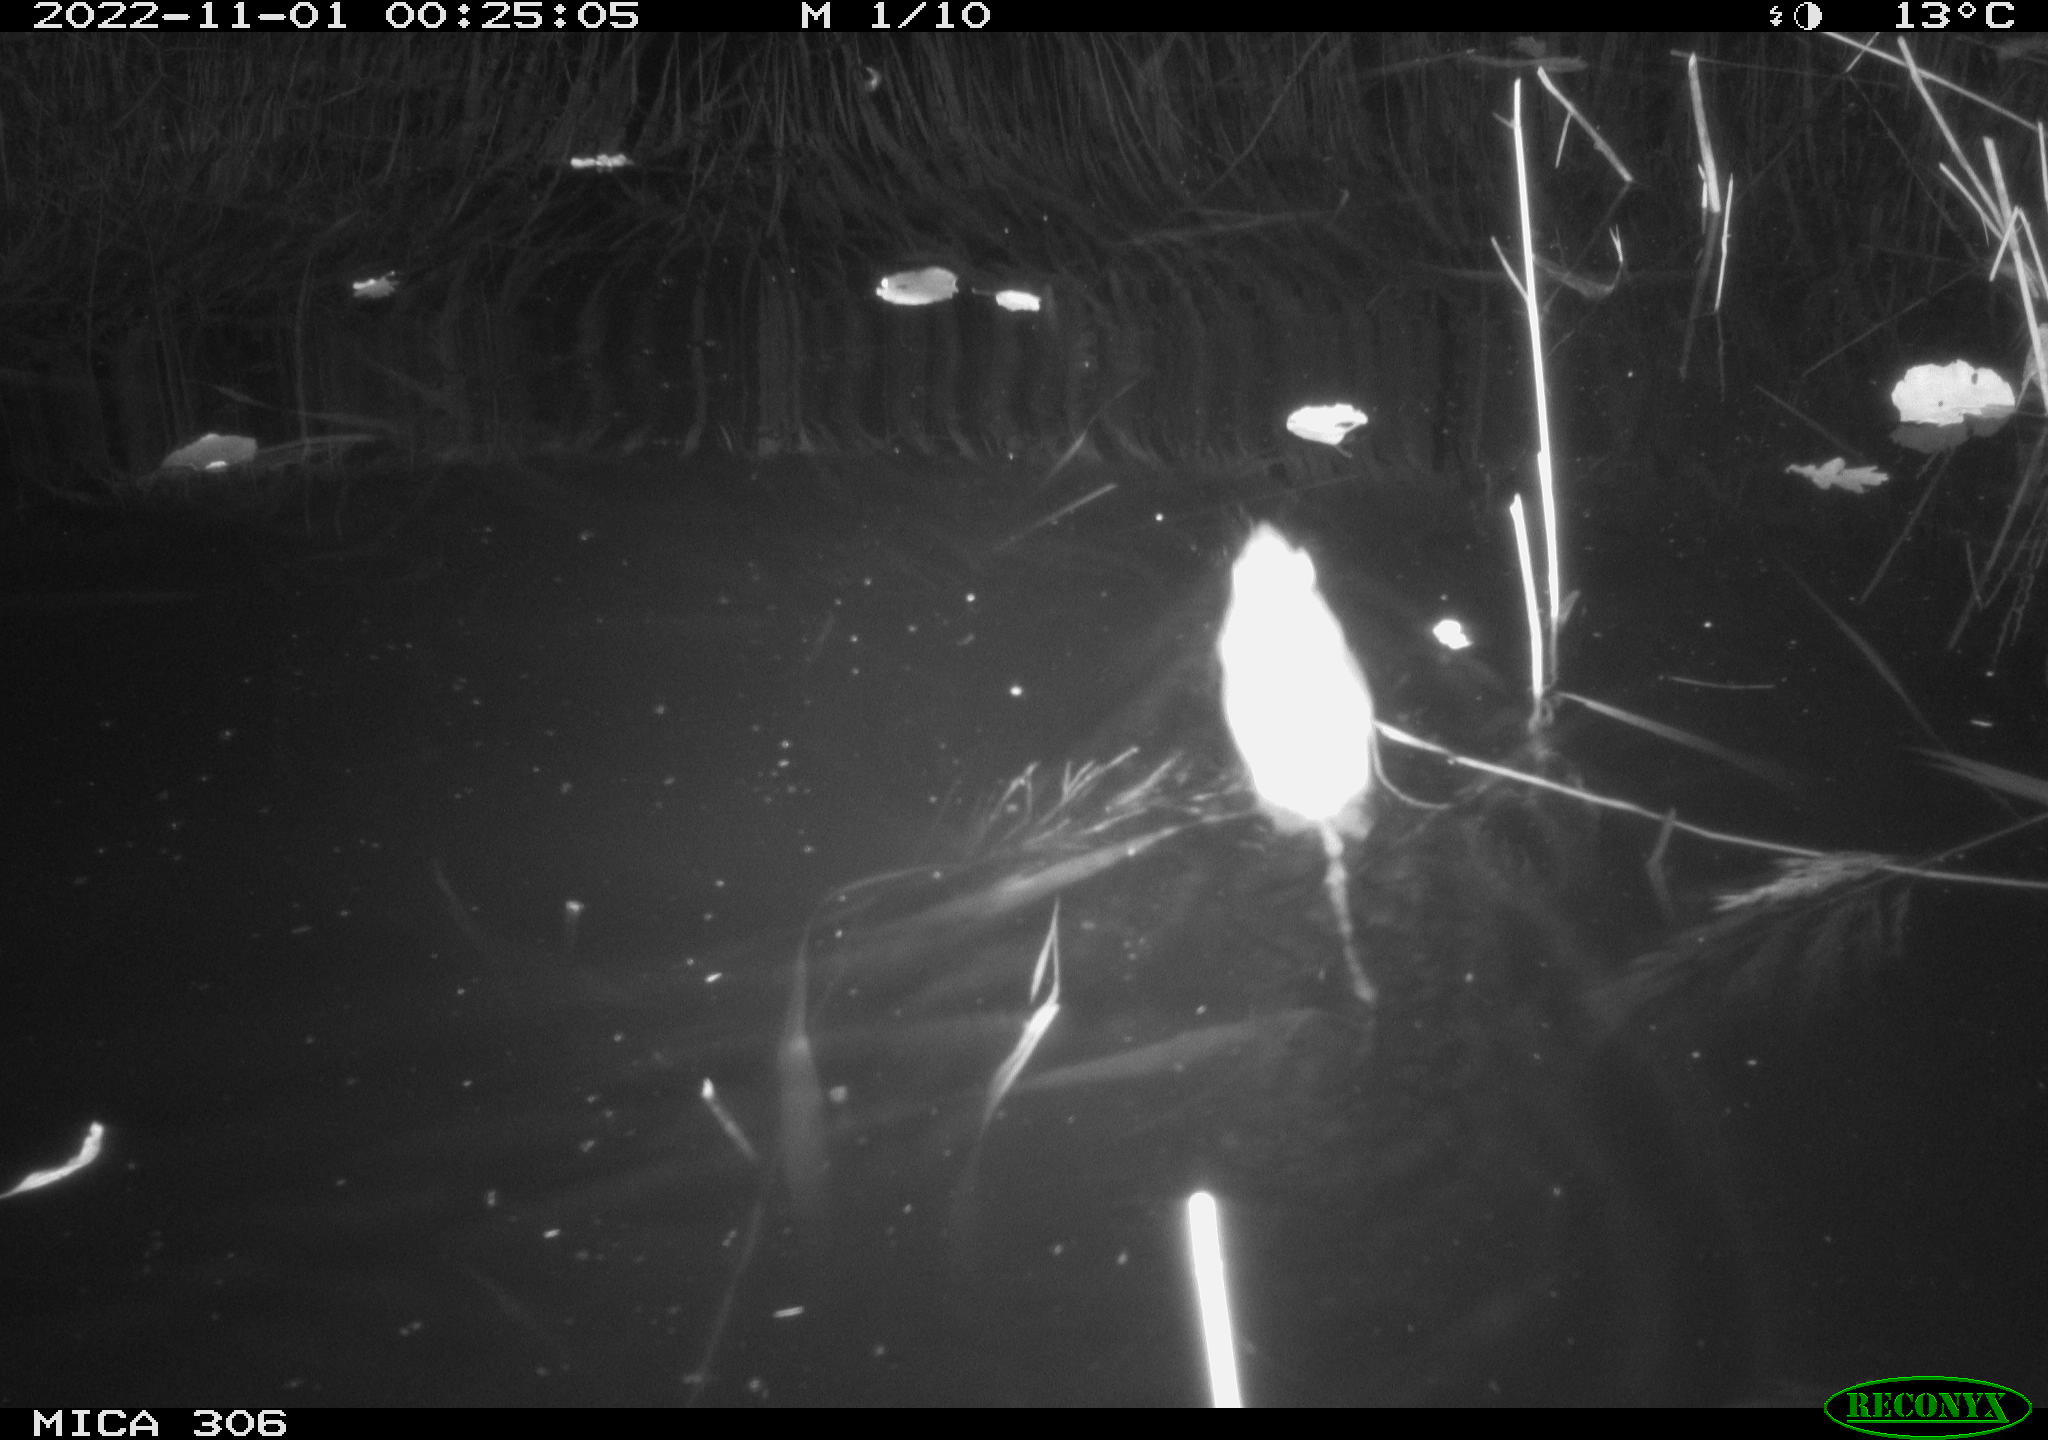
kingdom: Animalia
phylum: Chordata
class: Mammalia
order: Rodentia
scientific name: Rodentia
